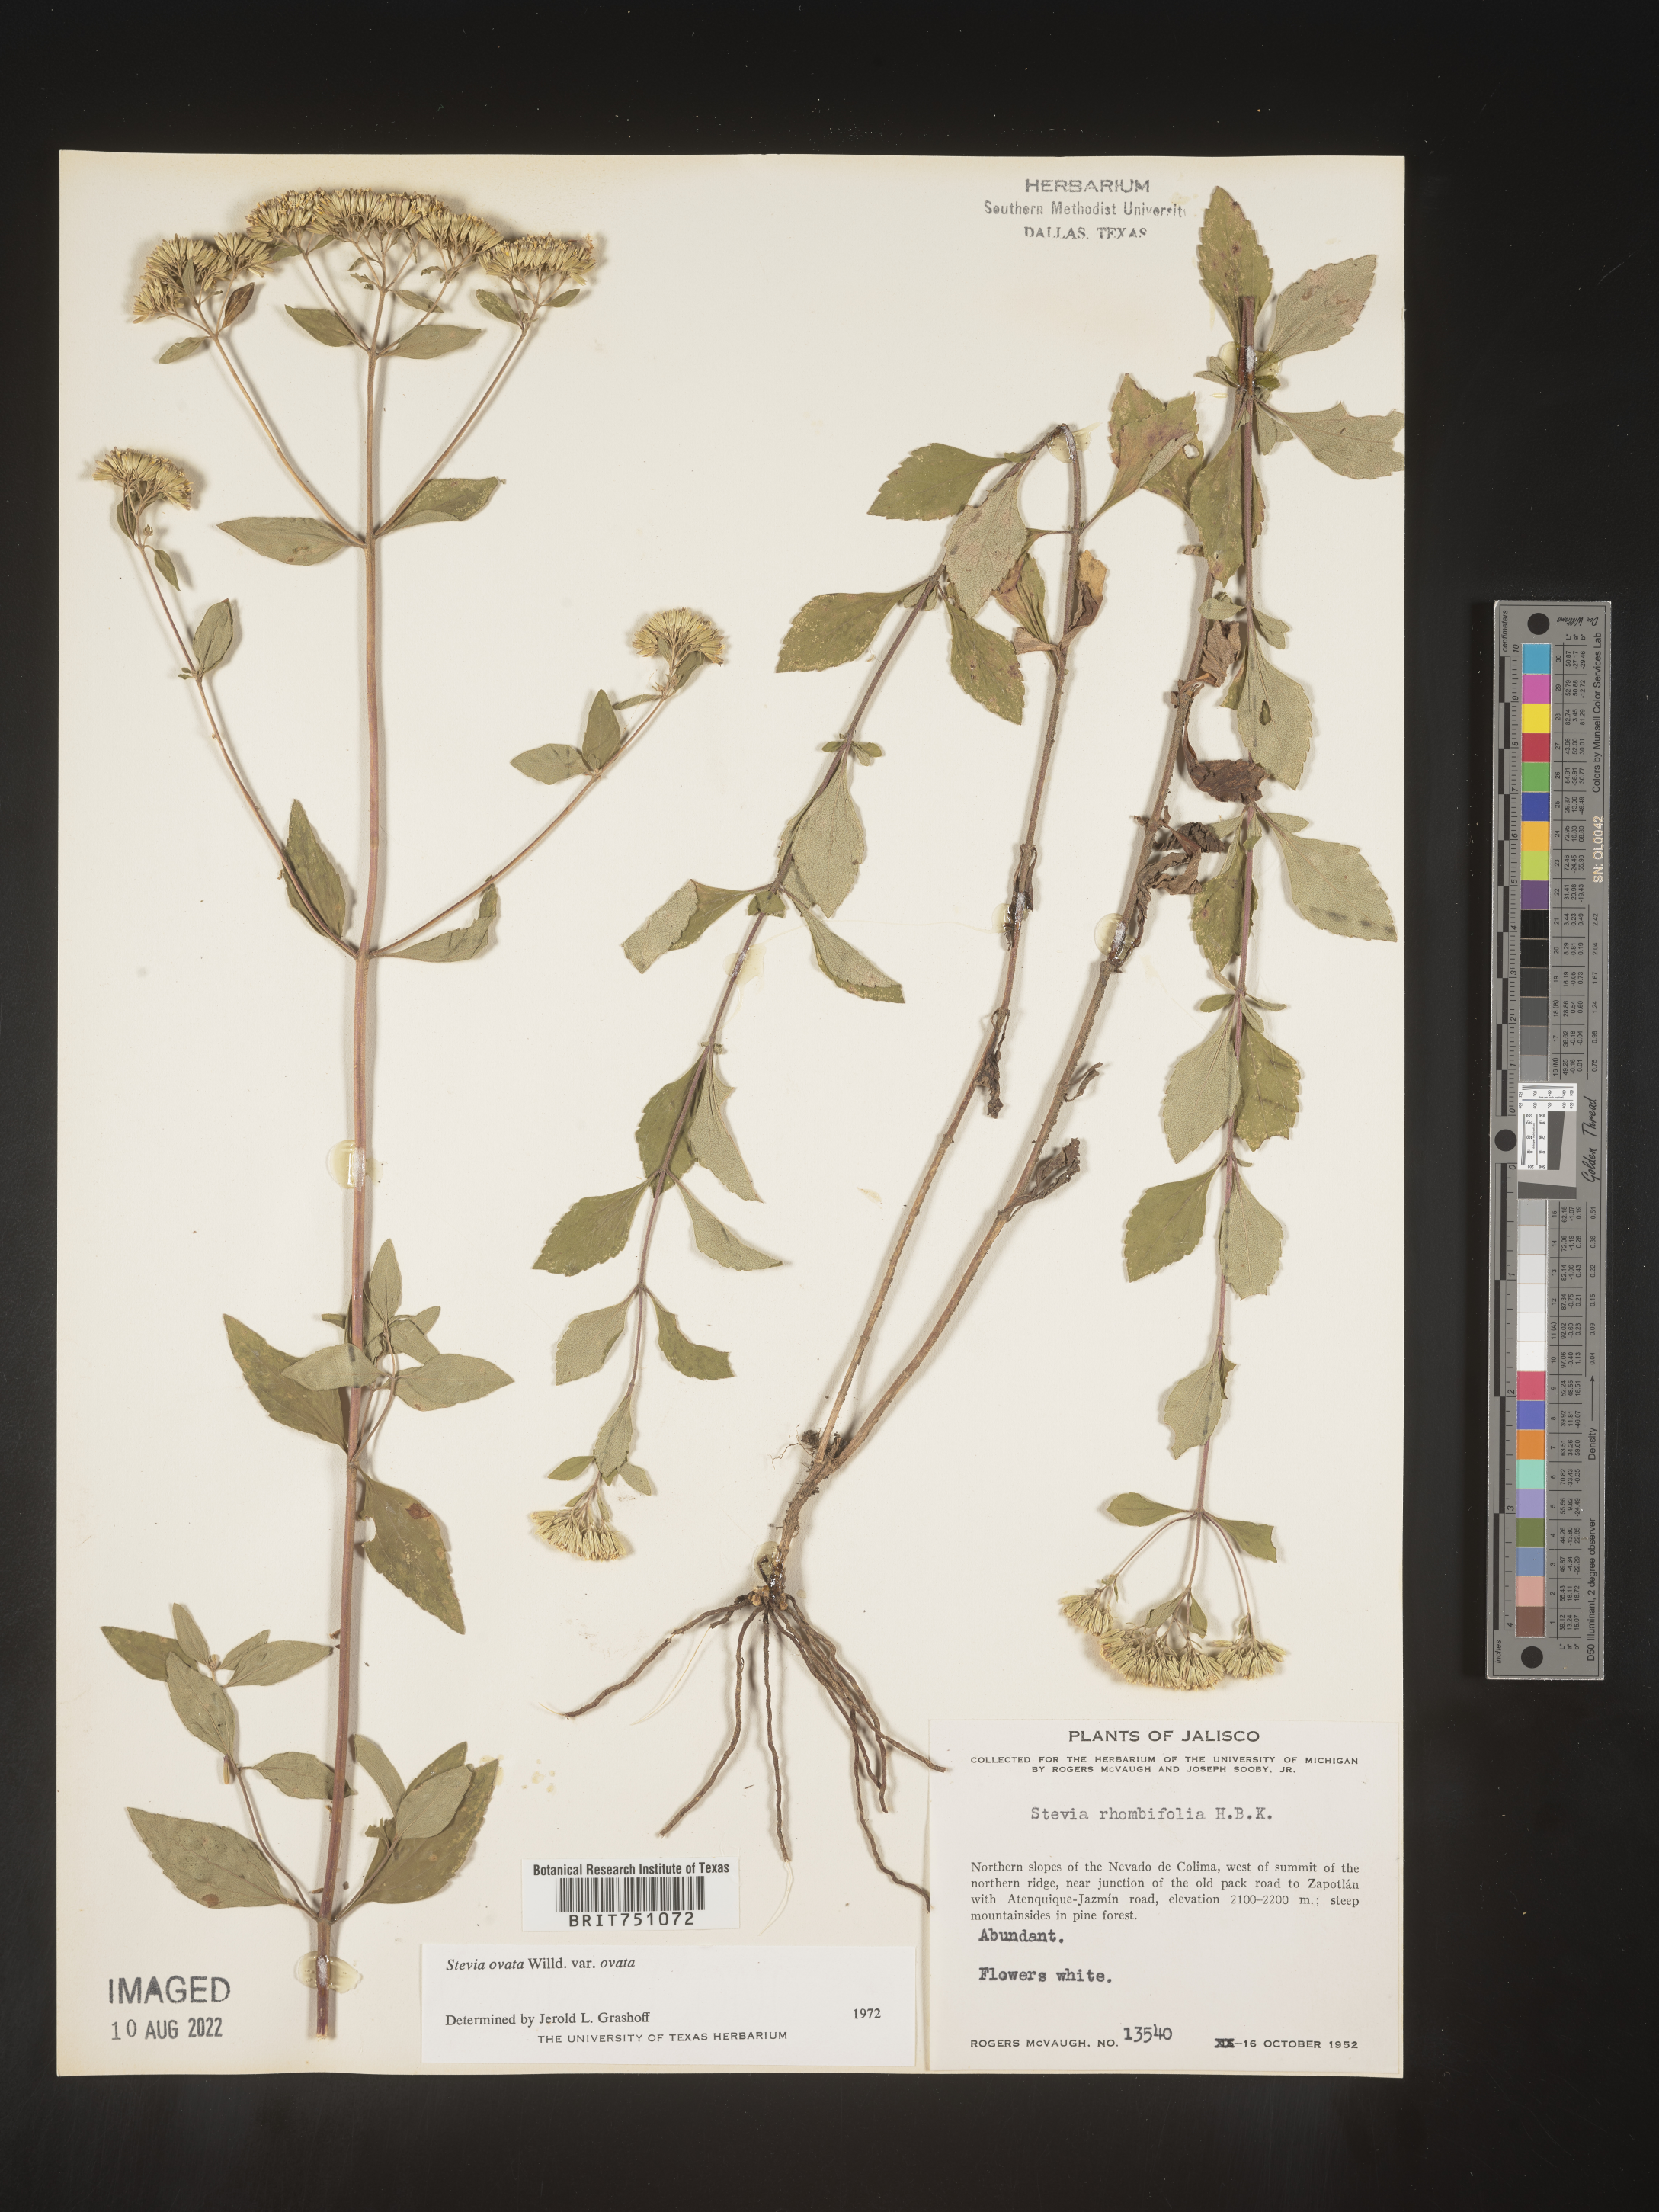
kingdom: Plantae
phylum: Tracheophyta
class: Magnoliopsida
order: Asterales
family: Asteraceae
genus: Stevia
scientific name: Stevia ovata
